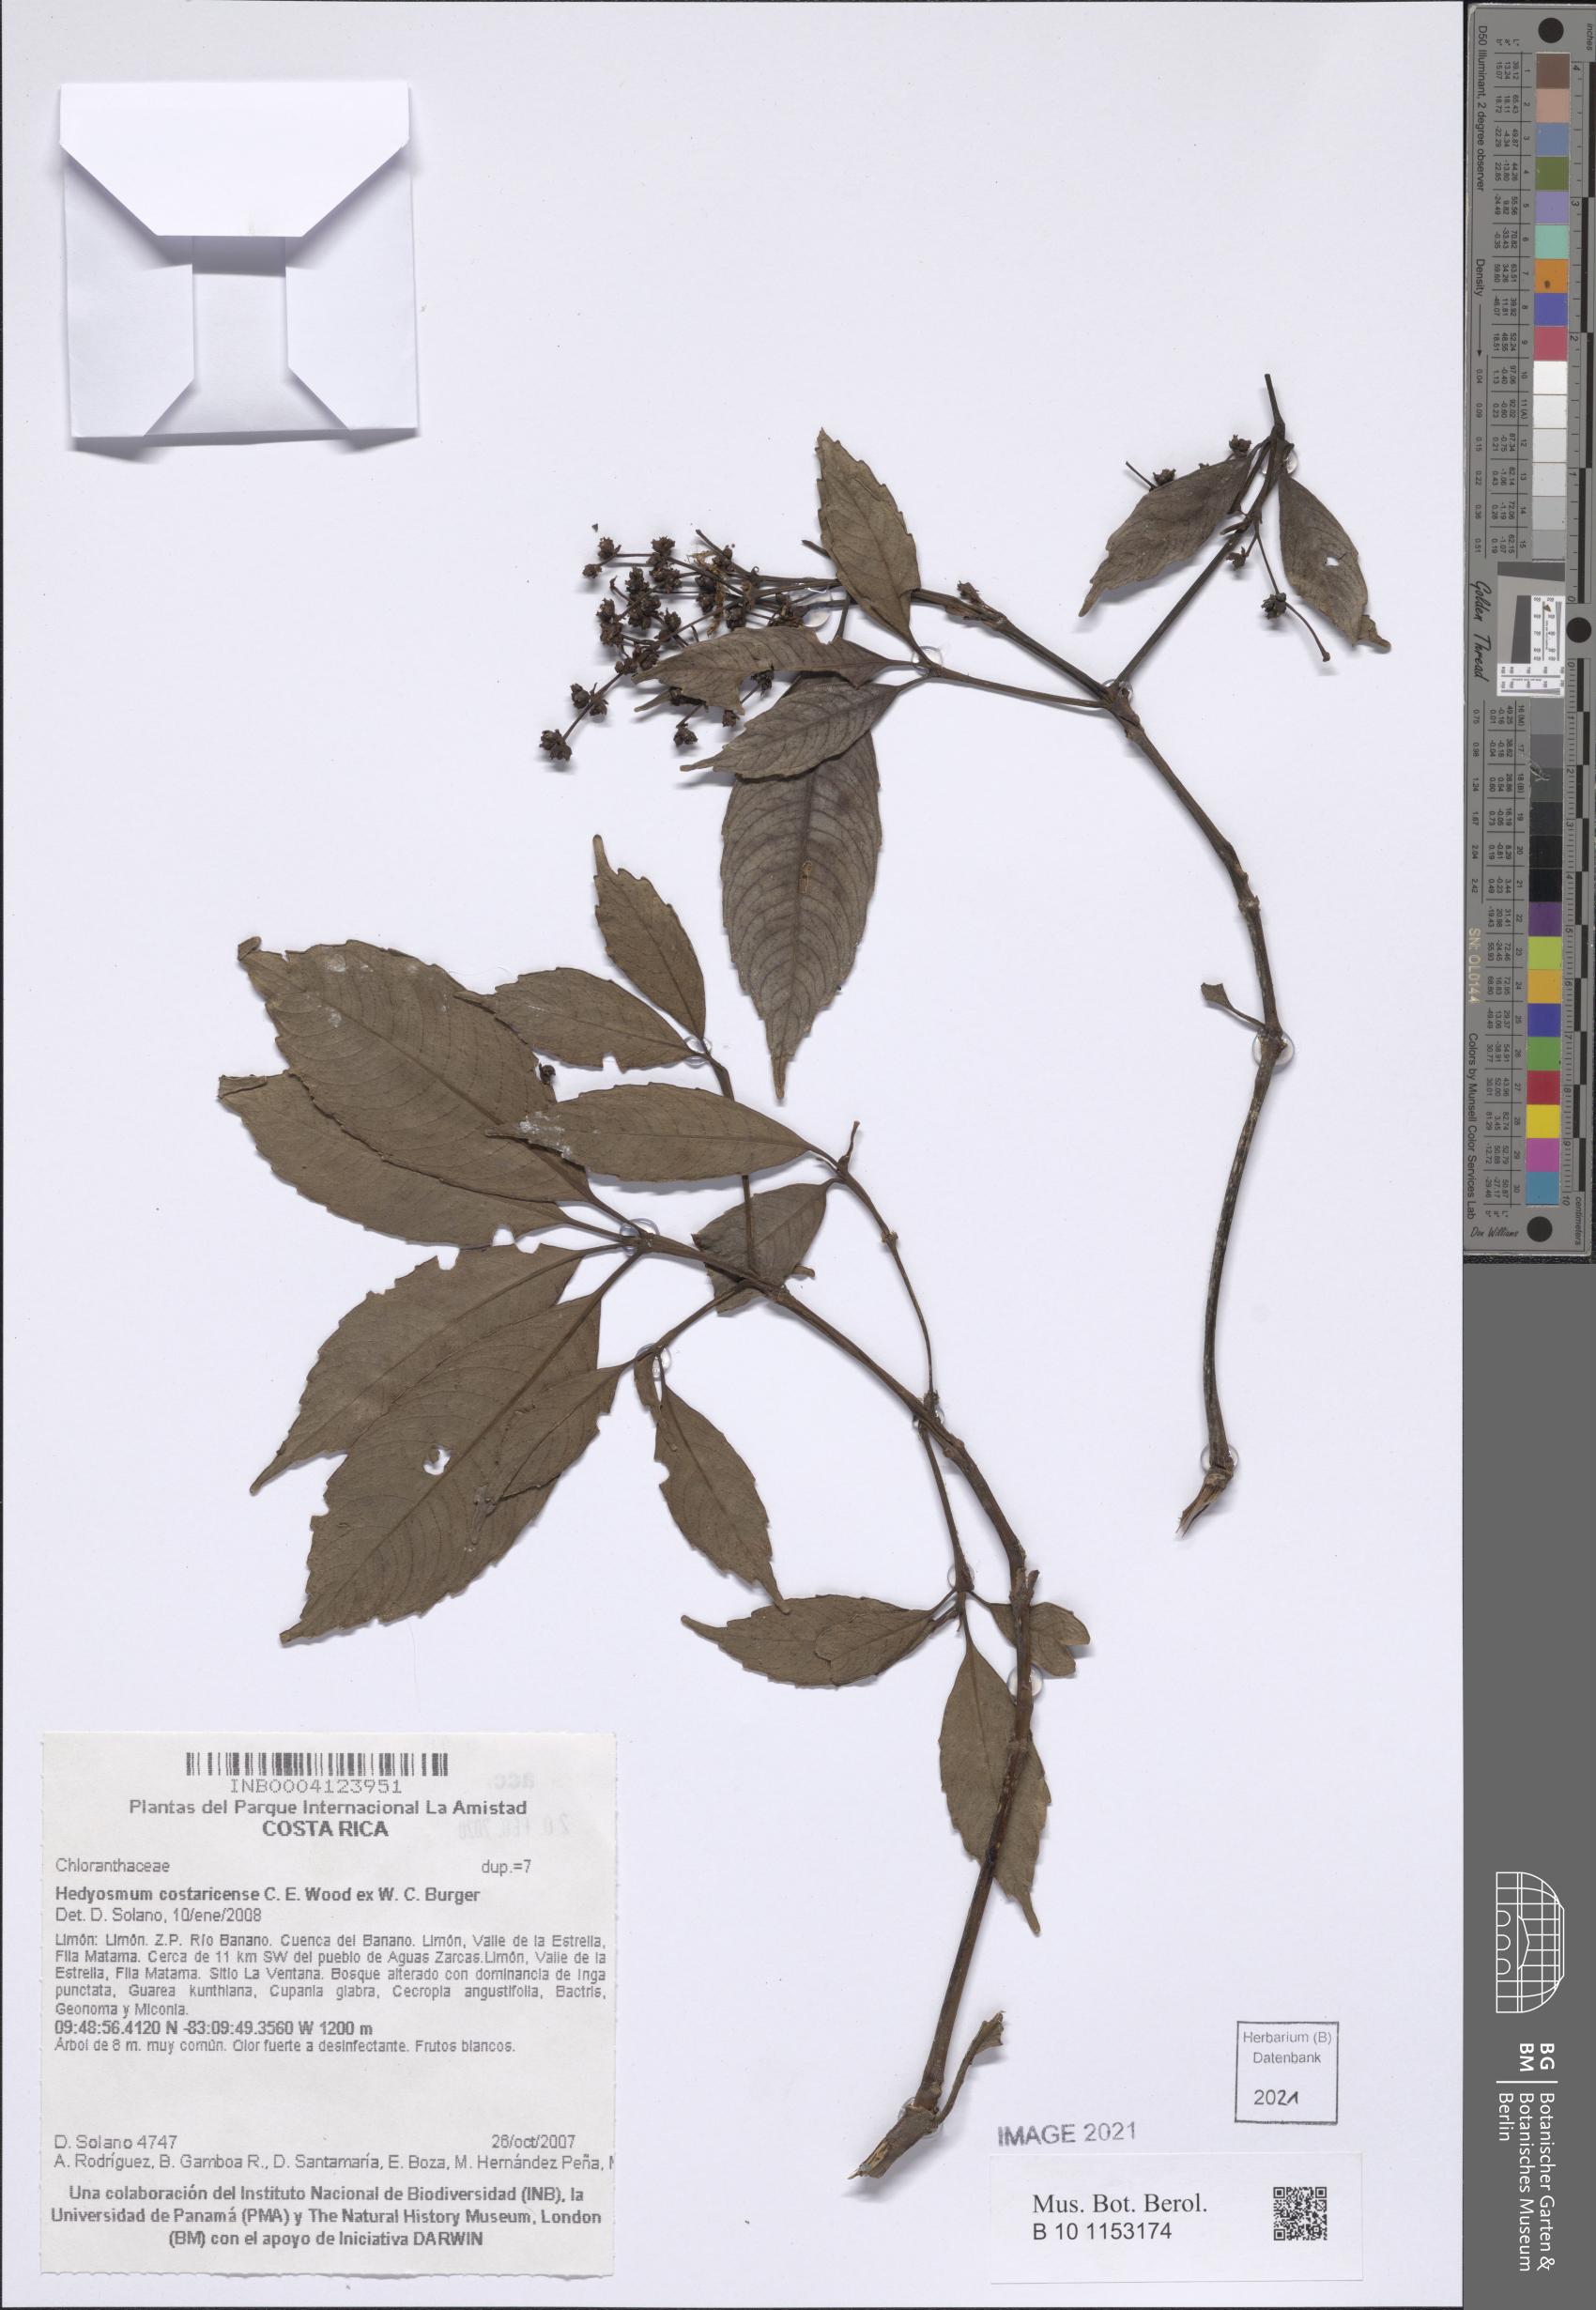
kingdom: Plantae
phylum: Tracheophyta
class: Magnoliopsida
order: Chloranthales
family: Chloranthaceae
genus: Hedyosmum
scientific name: Hedyosmum costaricense
